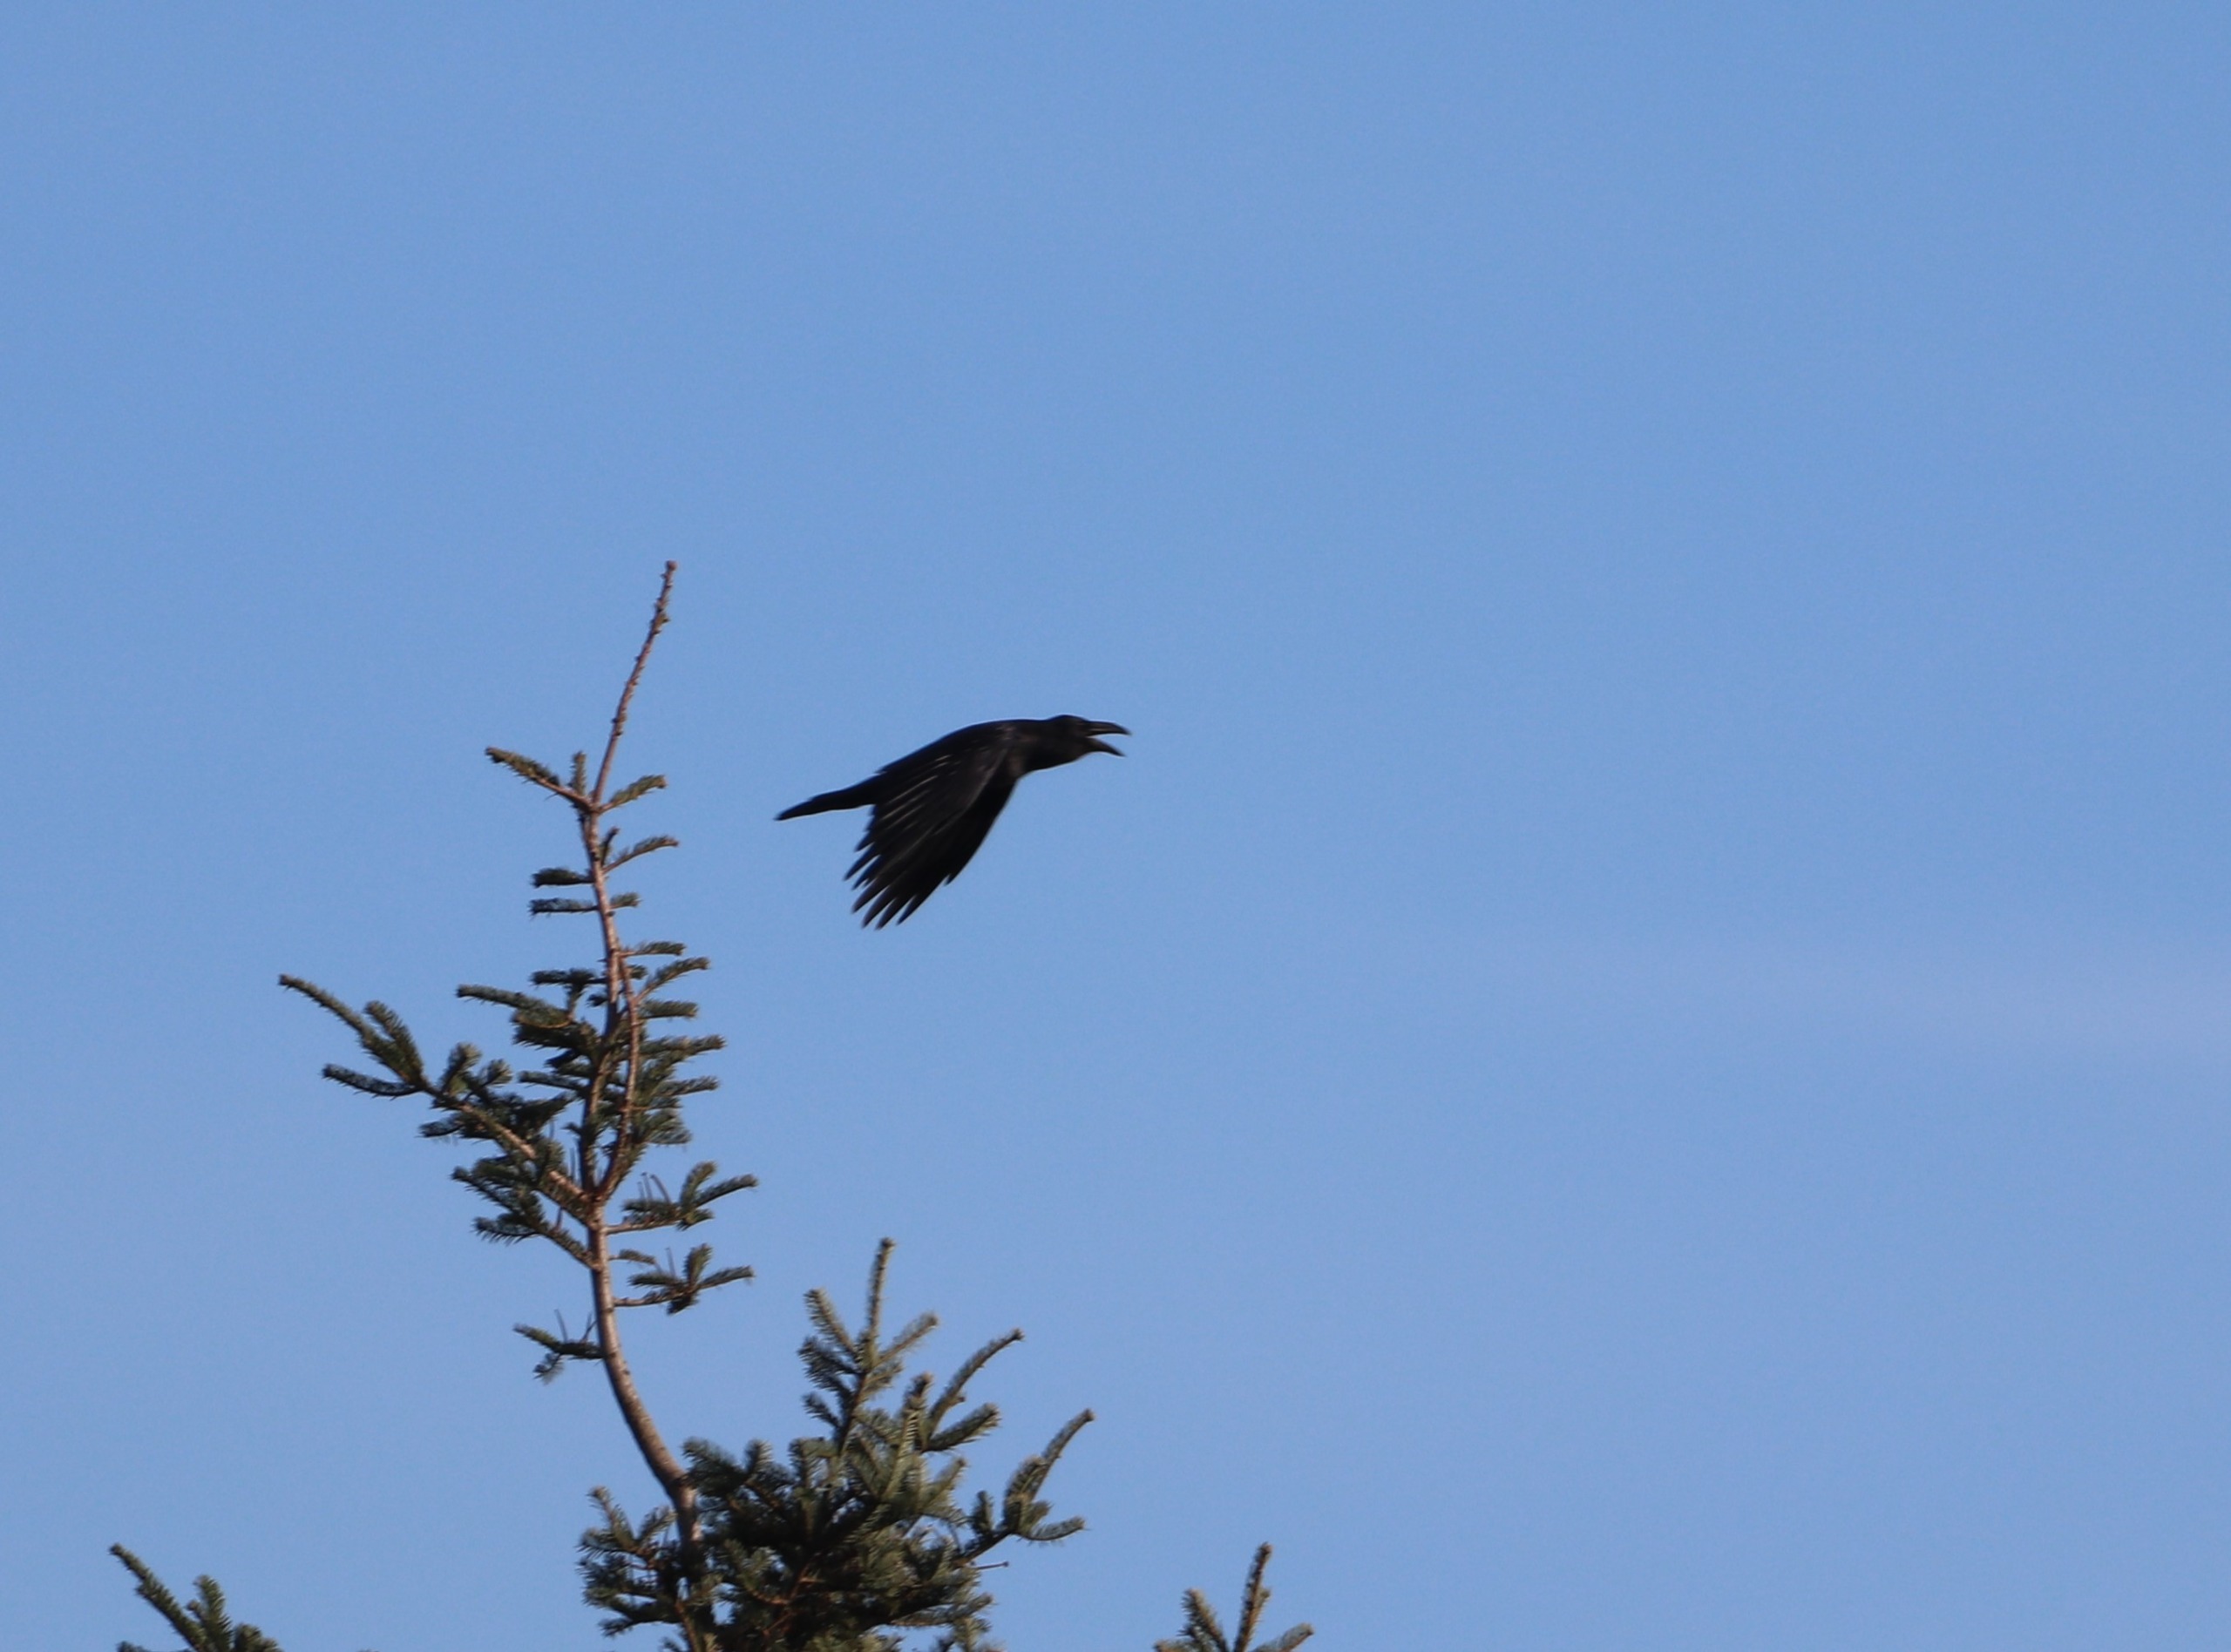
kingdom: Animalia
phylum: Chordata
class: Aves
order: Passeriformes
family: Corvidae
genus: Corvus
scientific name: Corvus corax
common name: Ravn
